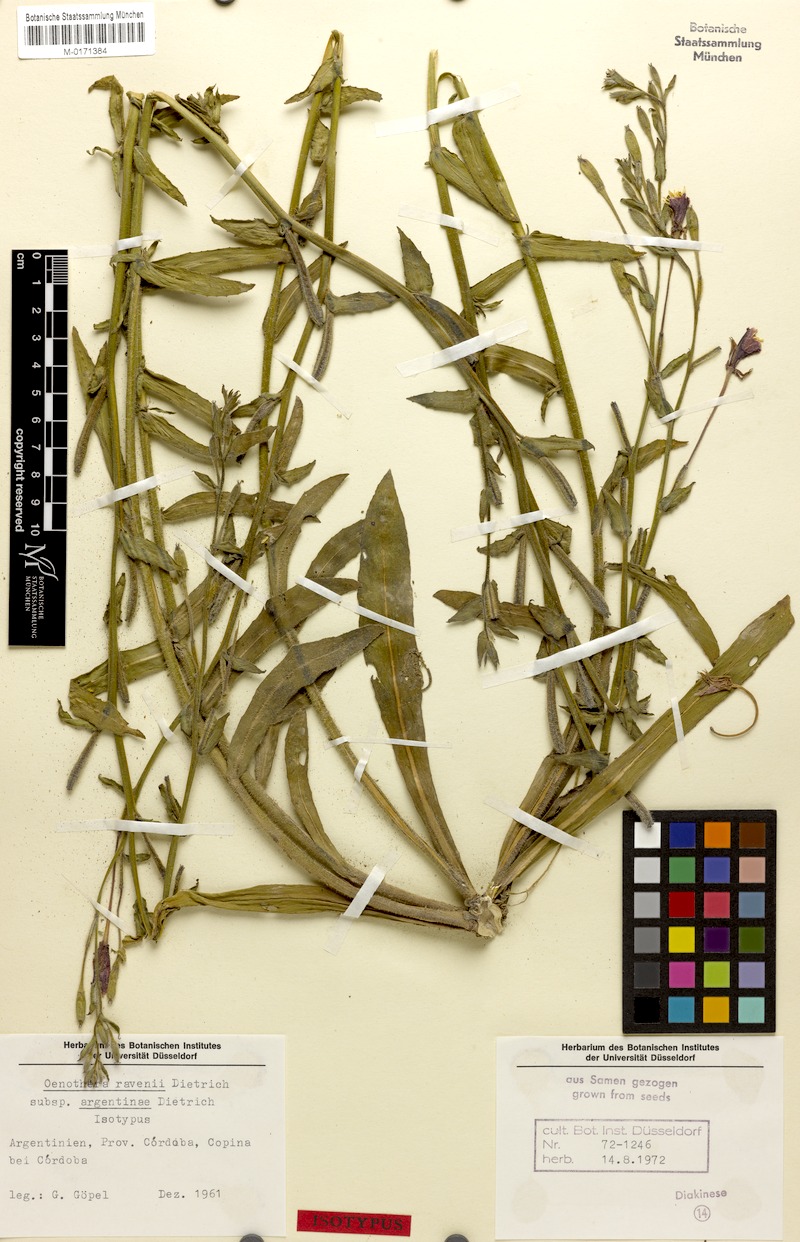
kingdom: Plantae
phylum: Tracheophyta
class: Magnoliopsida
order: Myrtales
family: Onagraceae
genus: Oenothera
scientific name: Oenothera parodiana
